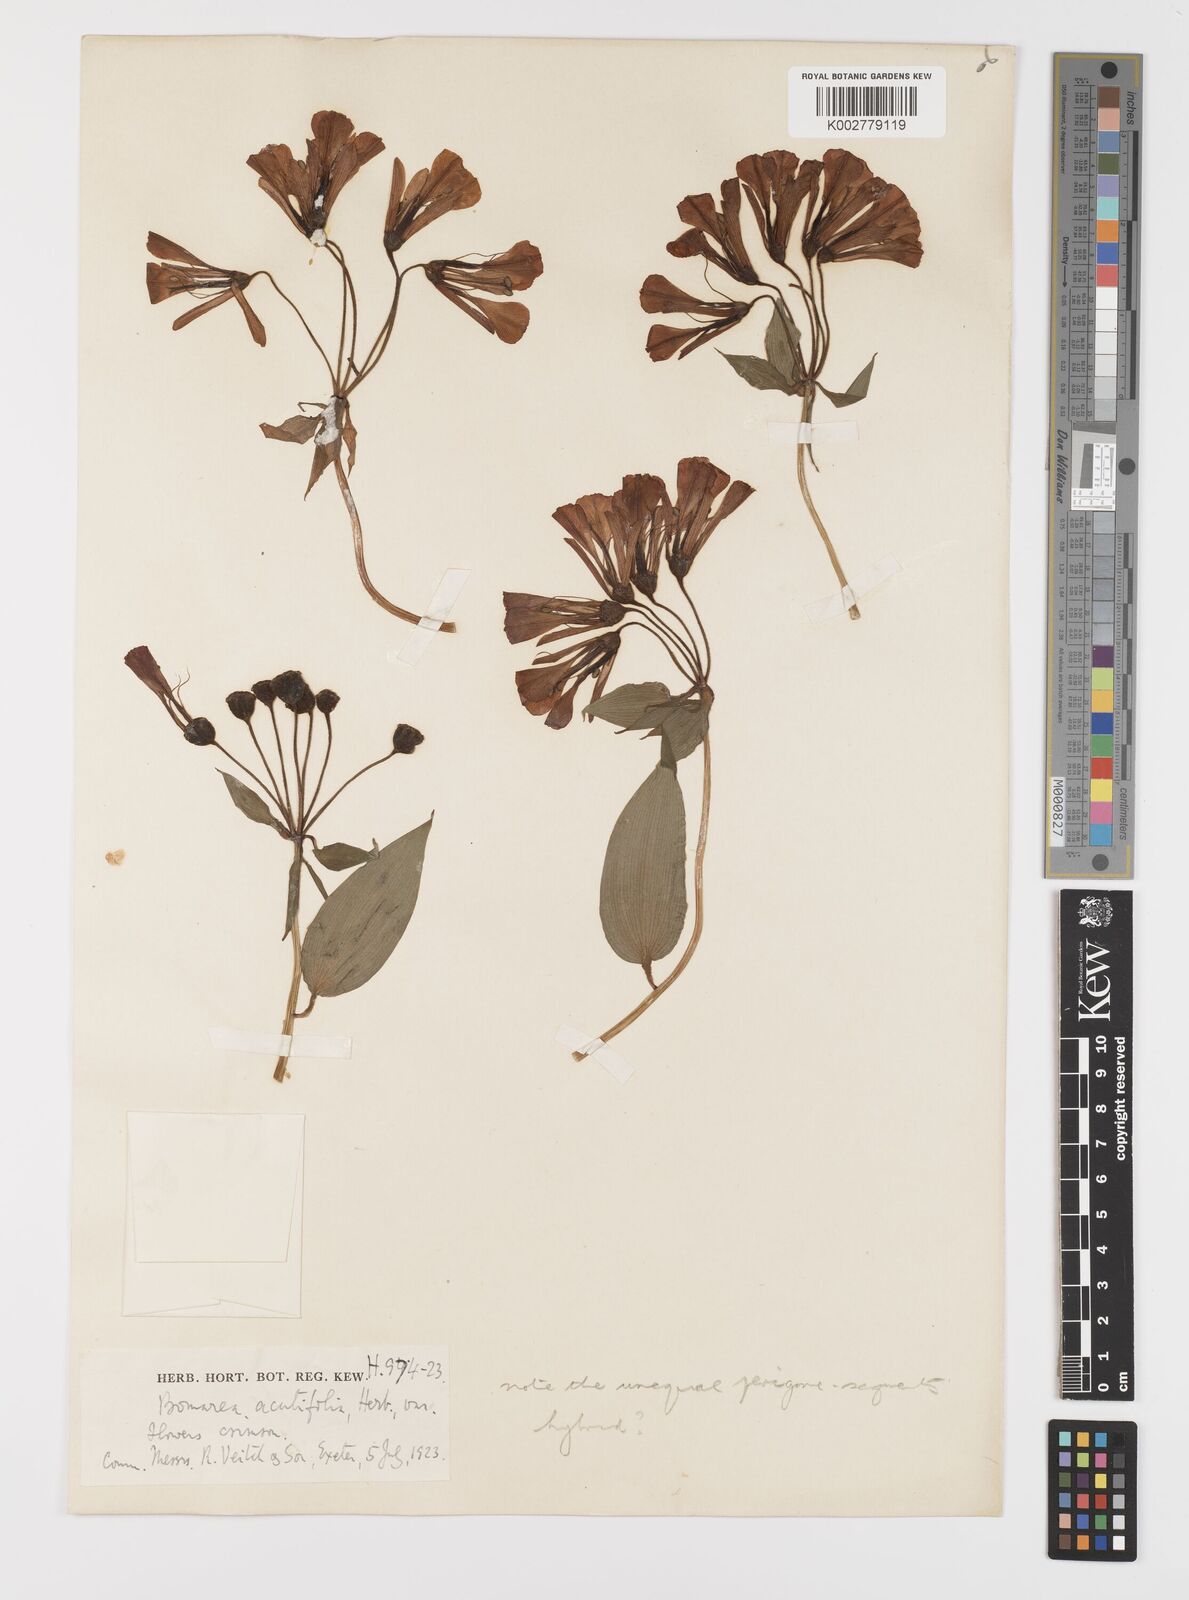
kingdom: Plantae
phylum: Tracheophyta
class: Liliopsida
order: Liliales
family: Alstroemeriaceae
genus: Bomarea
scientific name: Bomarea acutifolia
